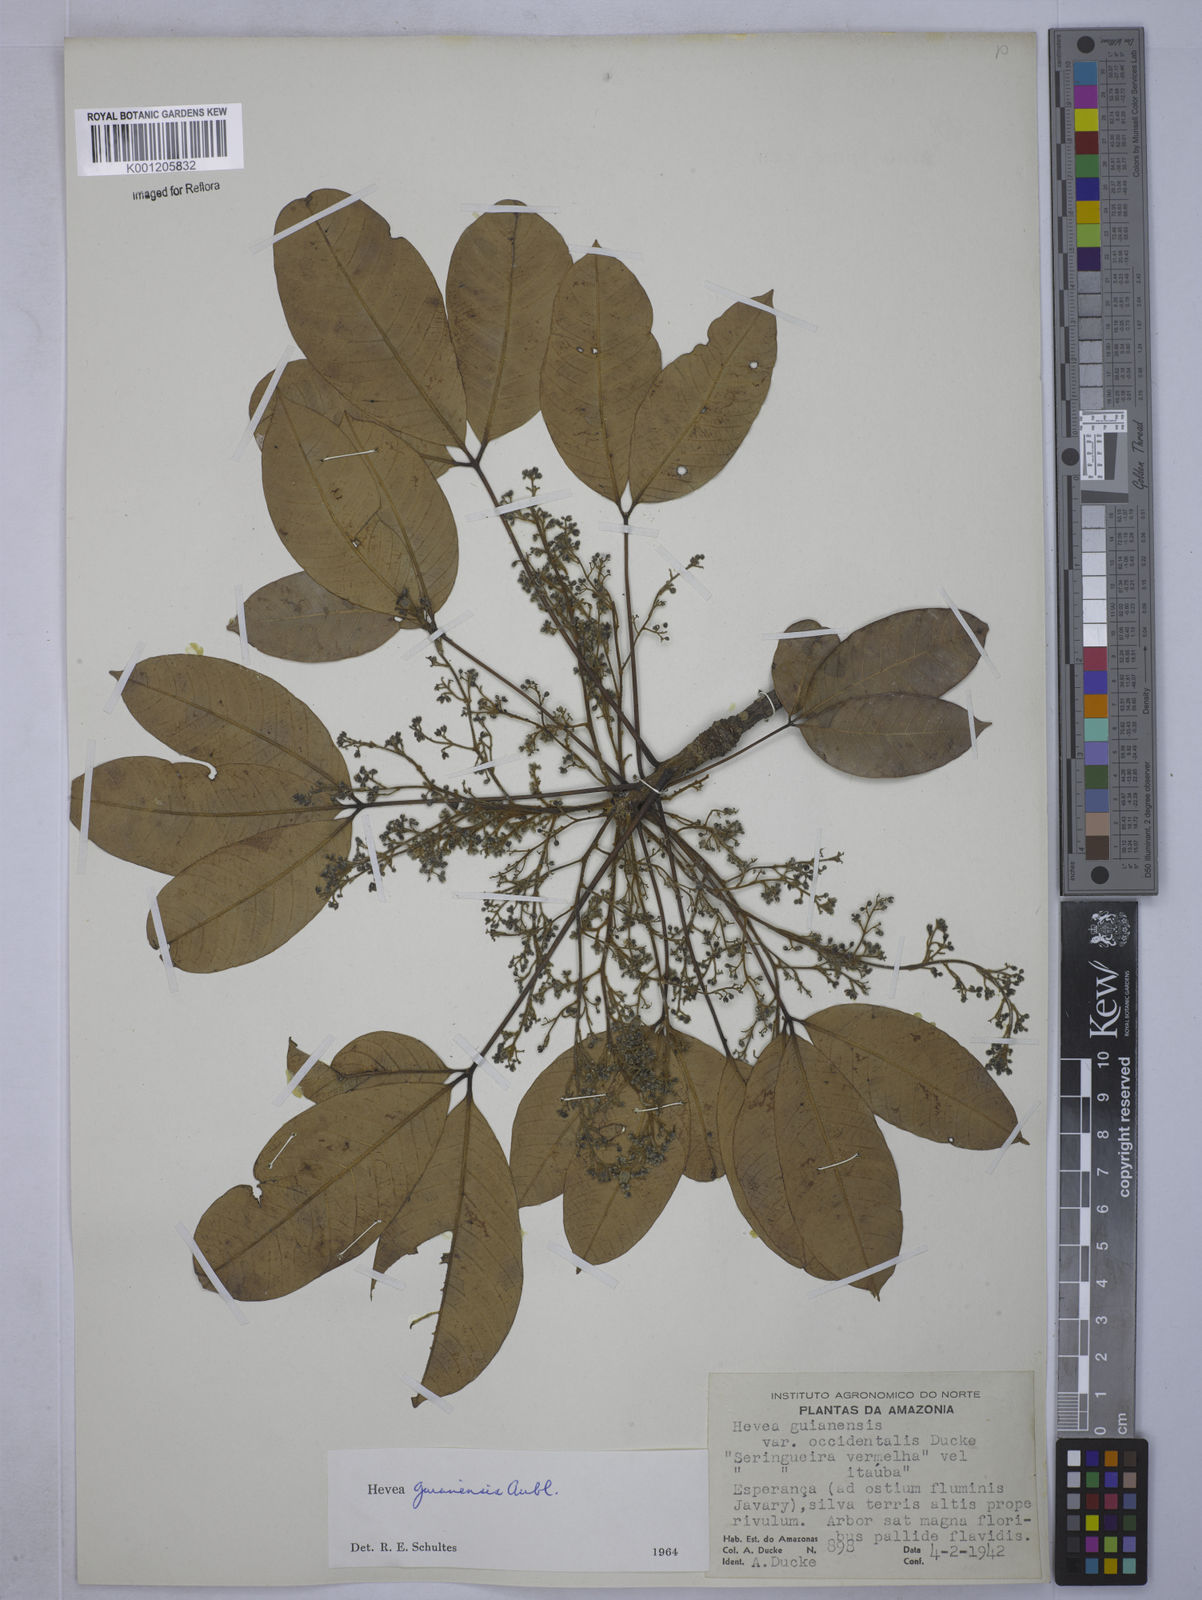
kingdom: Plantae
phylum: Tracheophyta
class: Magnoliopsida
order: Malpighiales
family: Euphorbiaceae
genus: Hevea
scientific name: Hevea guianensis
